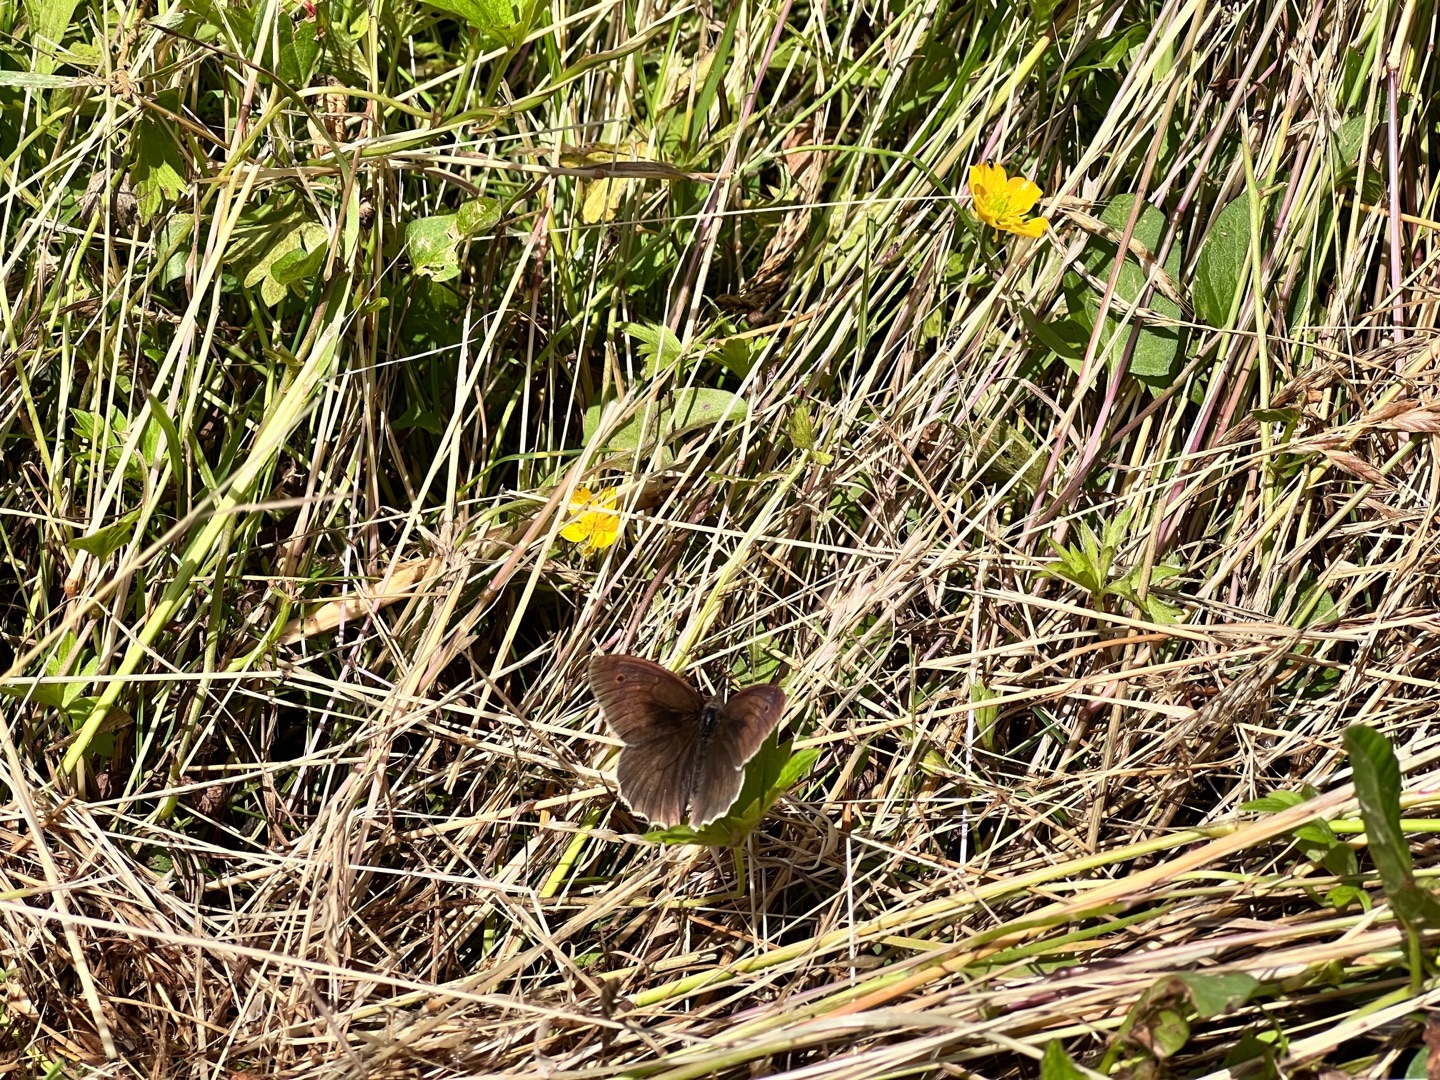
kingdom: Animalia
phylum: Arthropoda
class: Insecta
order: Lepidoptera
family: Nymphalidae
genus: Maniola
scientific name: Maniola jurtina
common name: Græsrandøje
